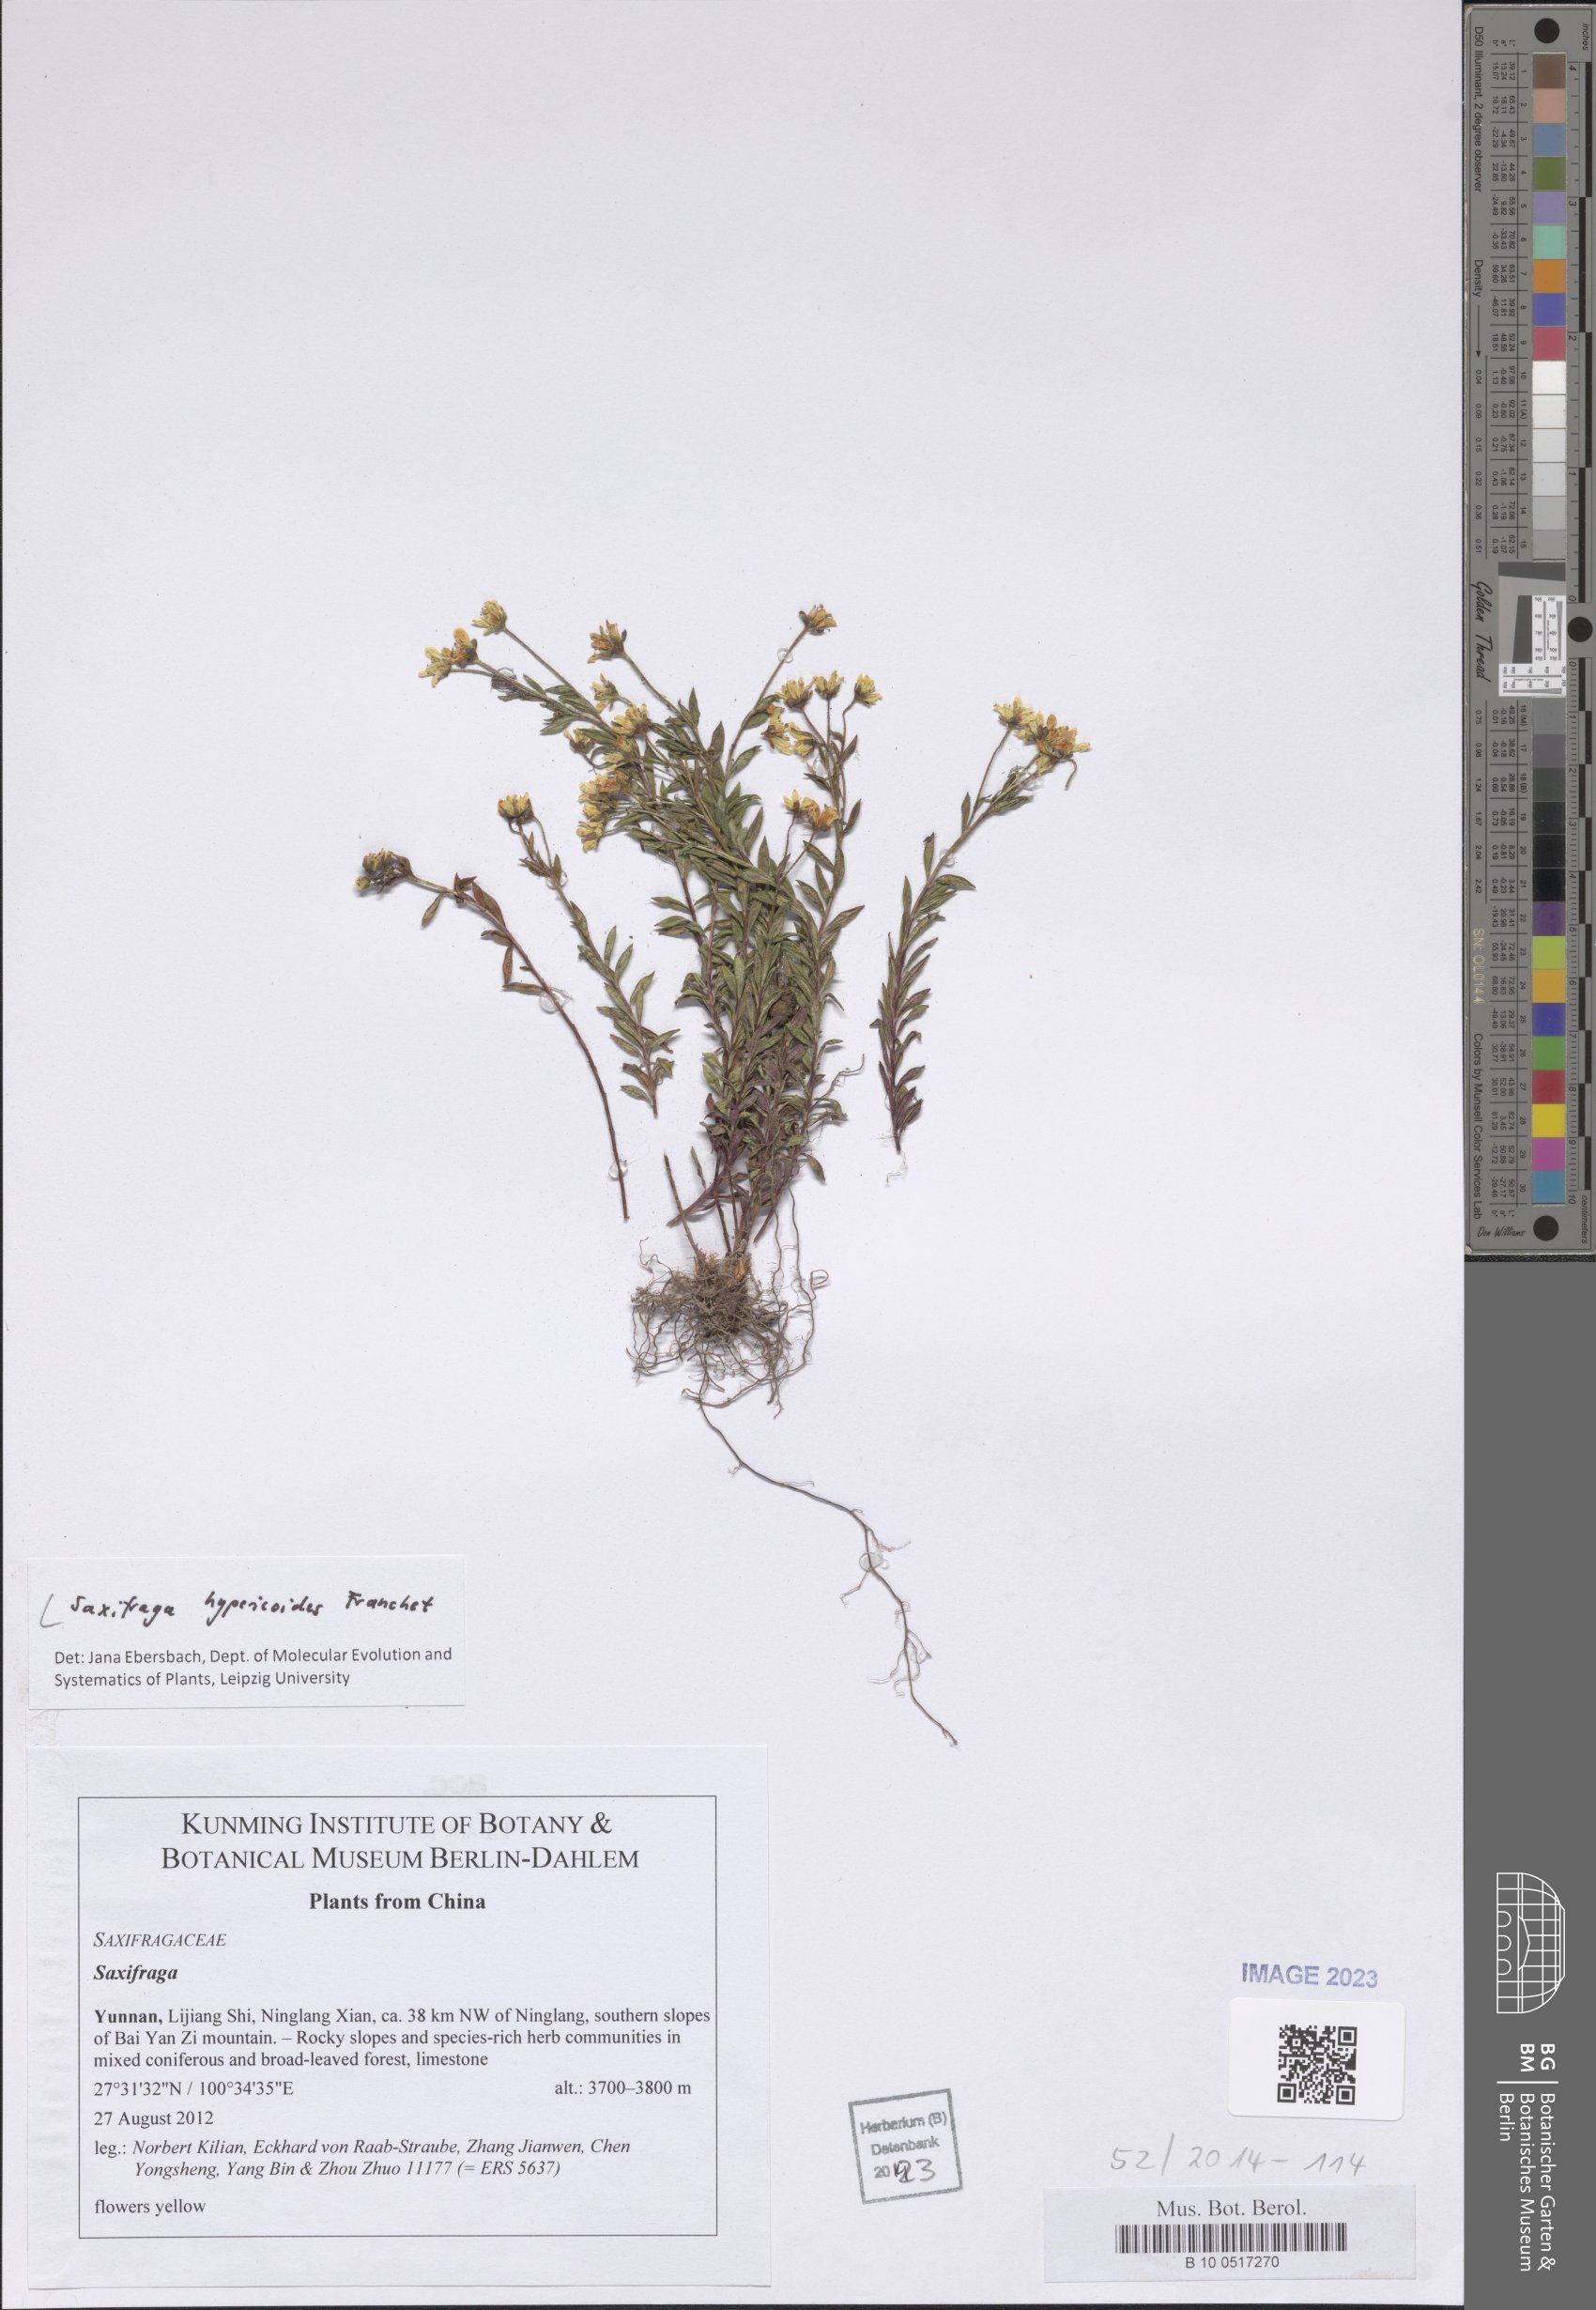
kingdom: Plantae
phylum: Tracheophyta
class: Magnoliopsida
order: Saxifragales
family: Saxifragaceae
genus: Saxifraga
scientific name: Saxifraga hypericoides
